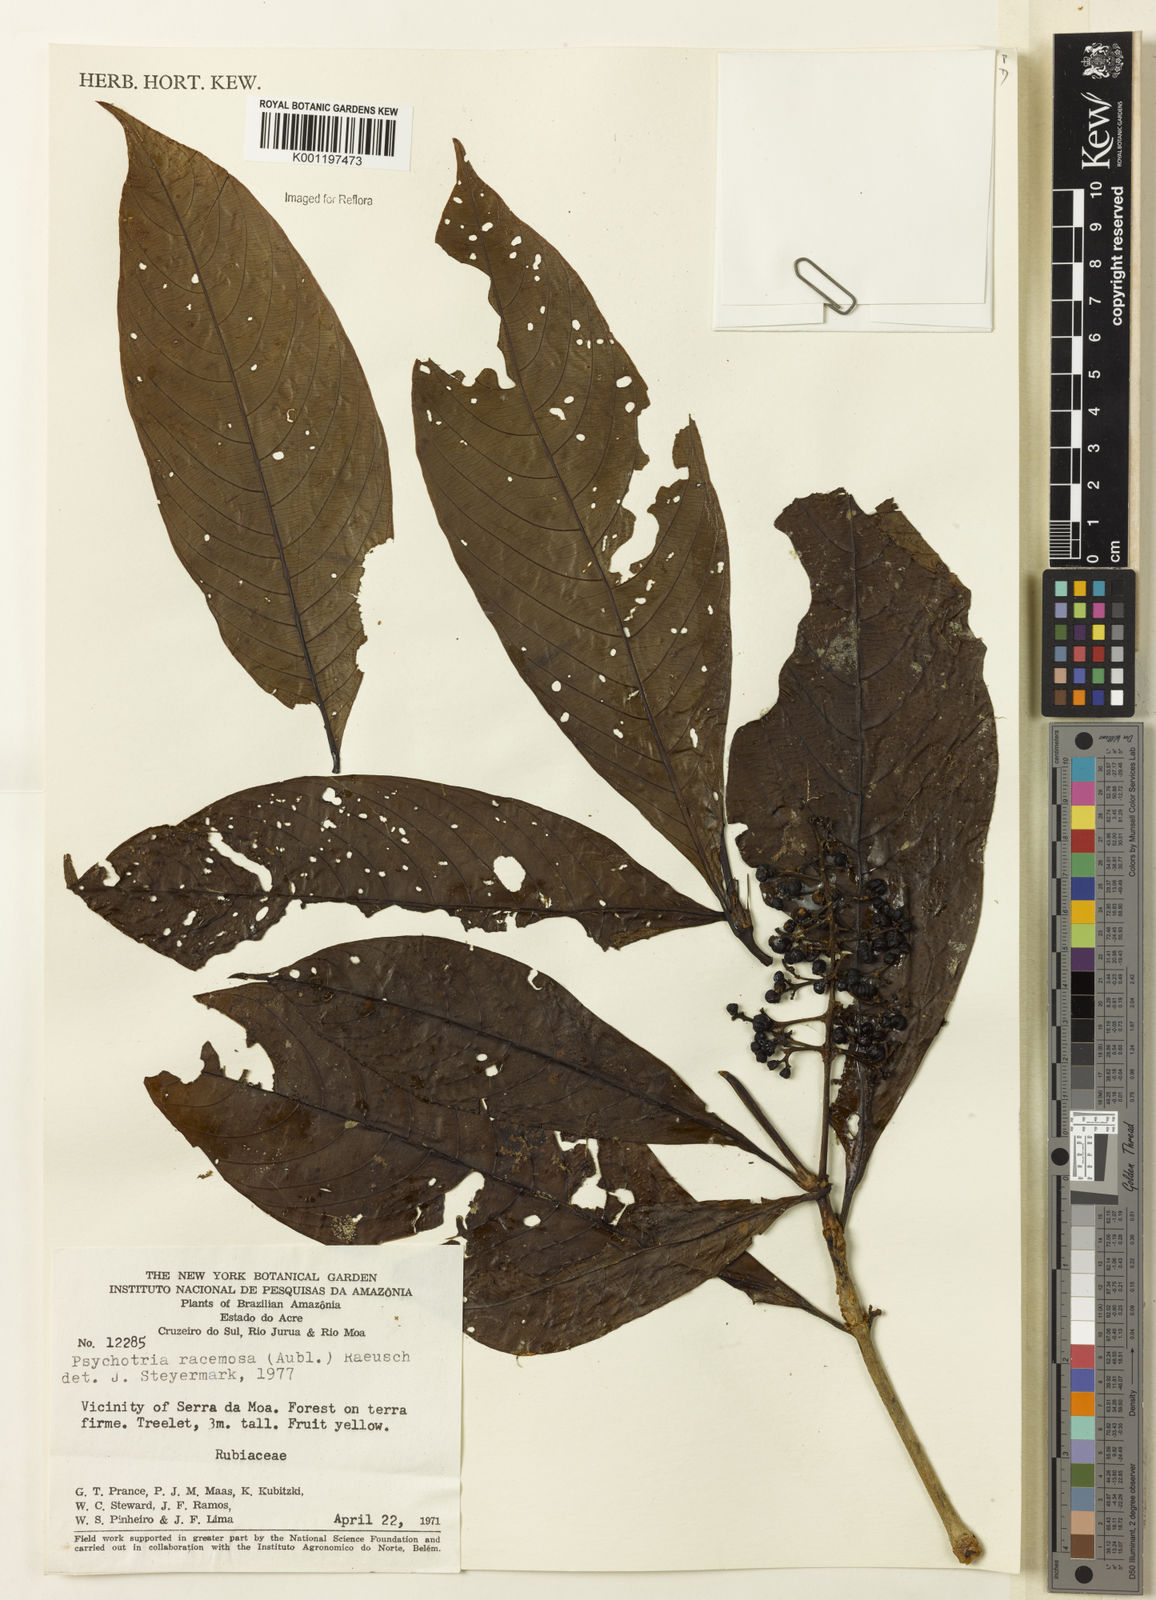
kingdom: Plantae
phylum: Tracheophyta
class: Magnoliopsida
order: Gentianales
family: Rubiaceae
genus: Palicourea
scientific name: Palicourea racemosa
